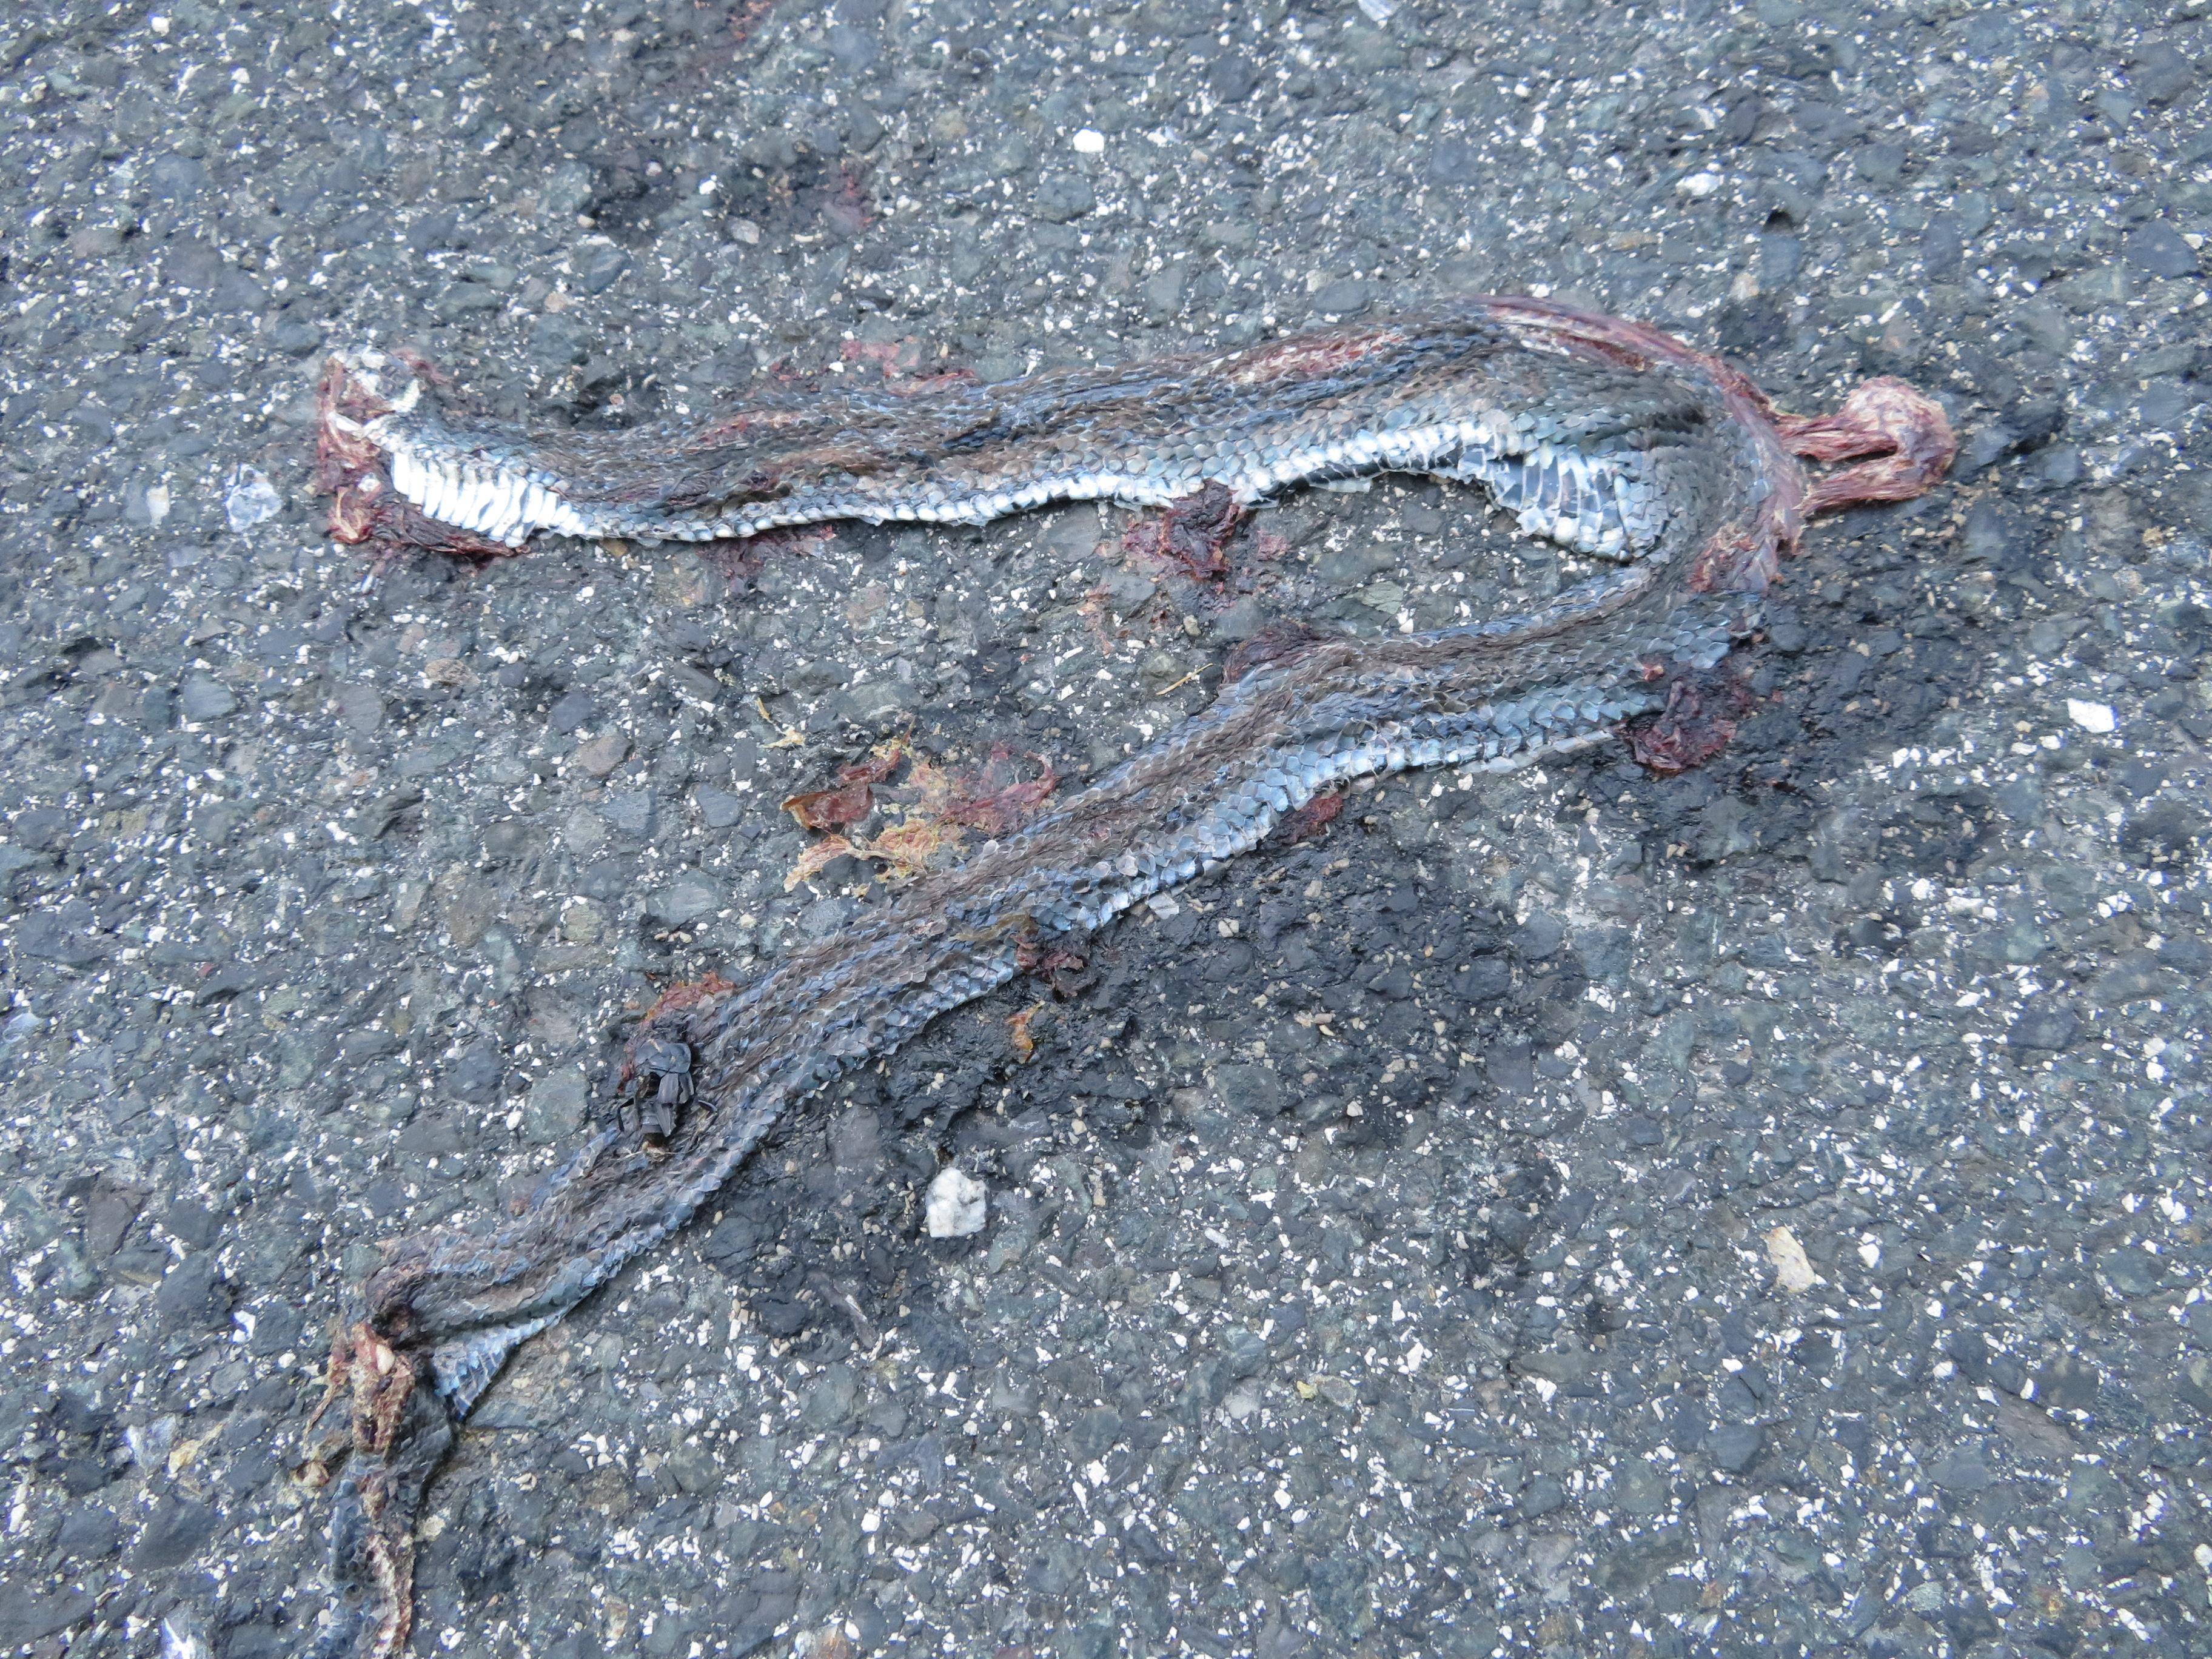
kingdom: Animalia
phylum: Chordata
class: Squamata
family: Colubridae
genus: Natrix
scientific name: Natrix natrix
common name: Grass snake
